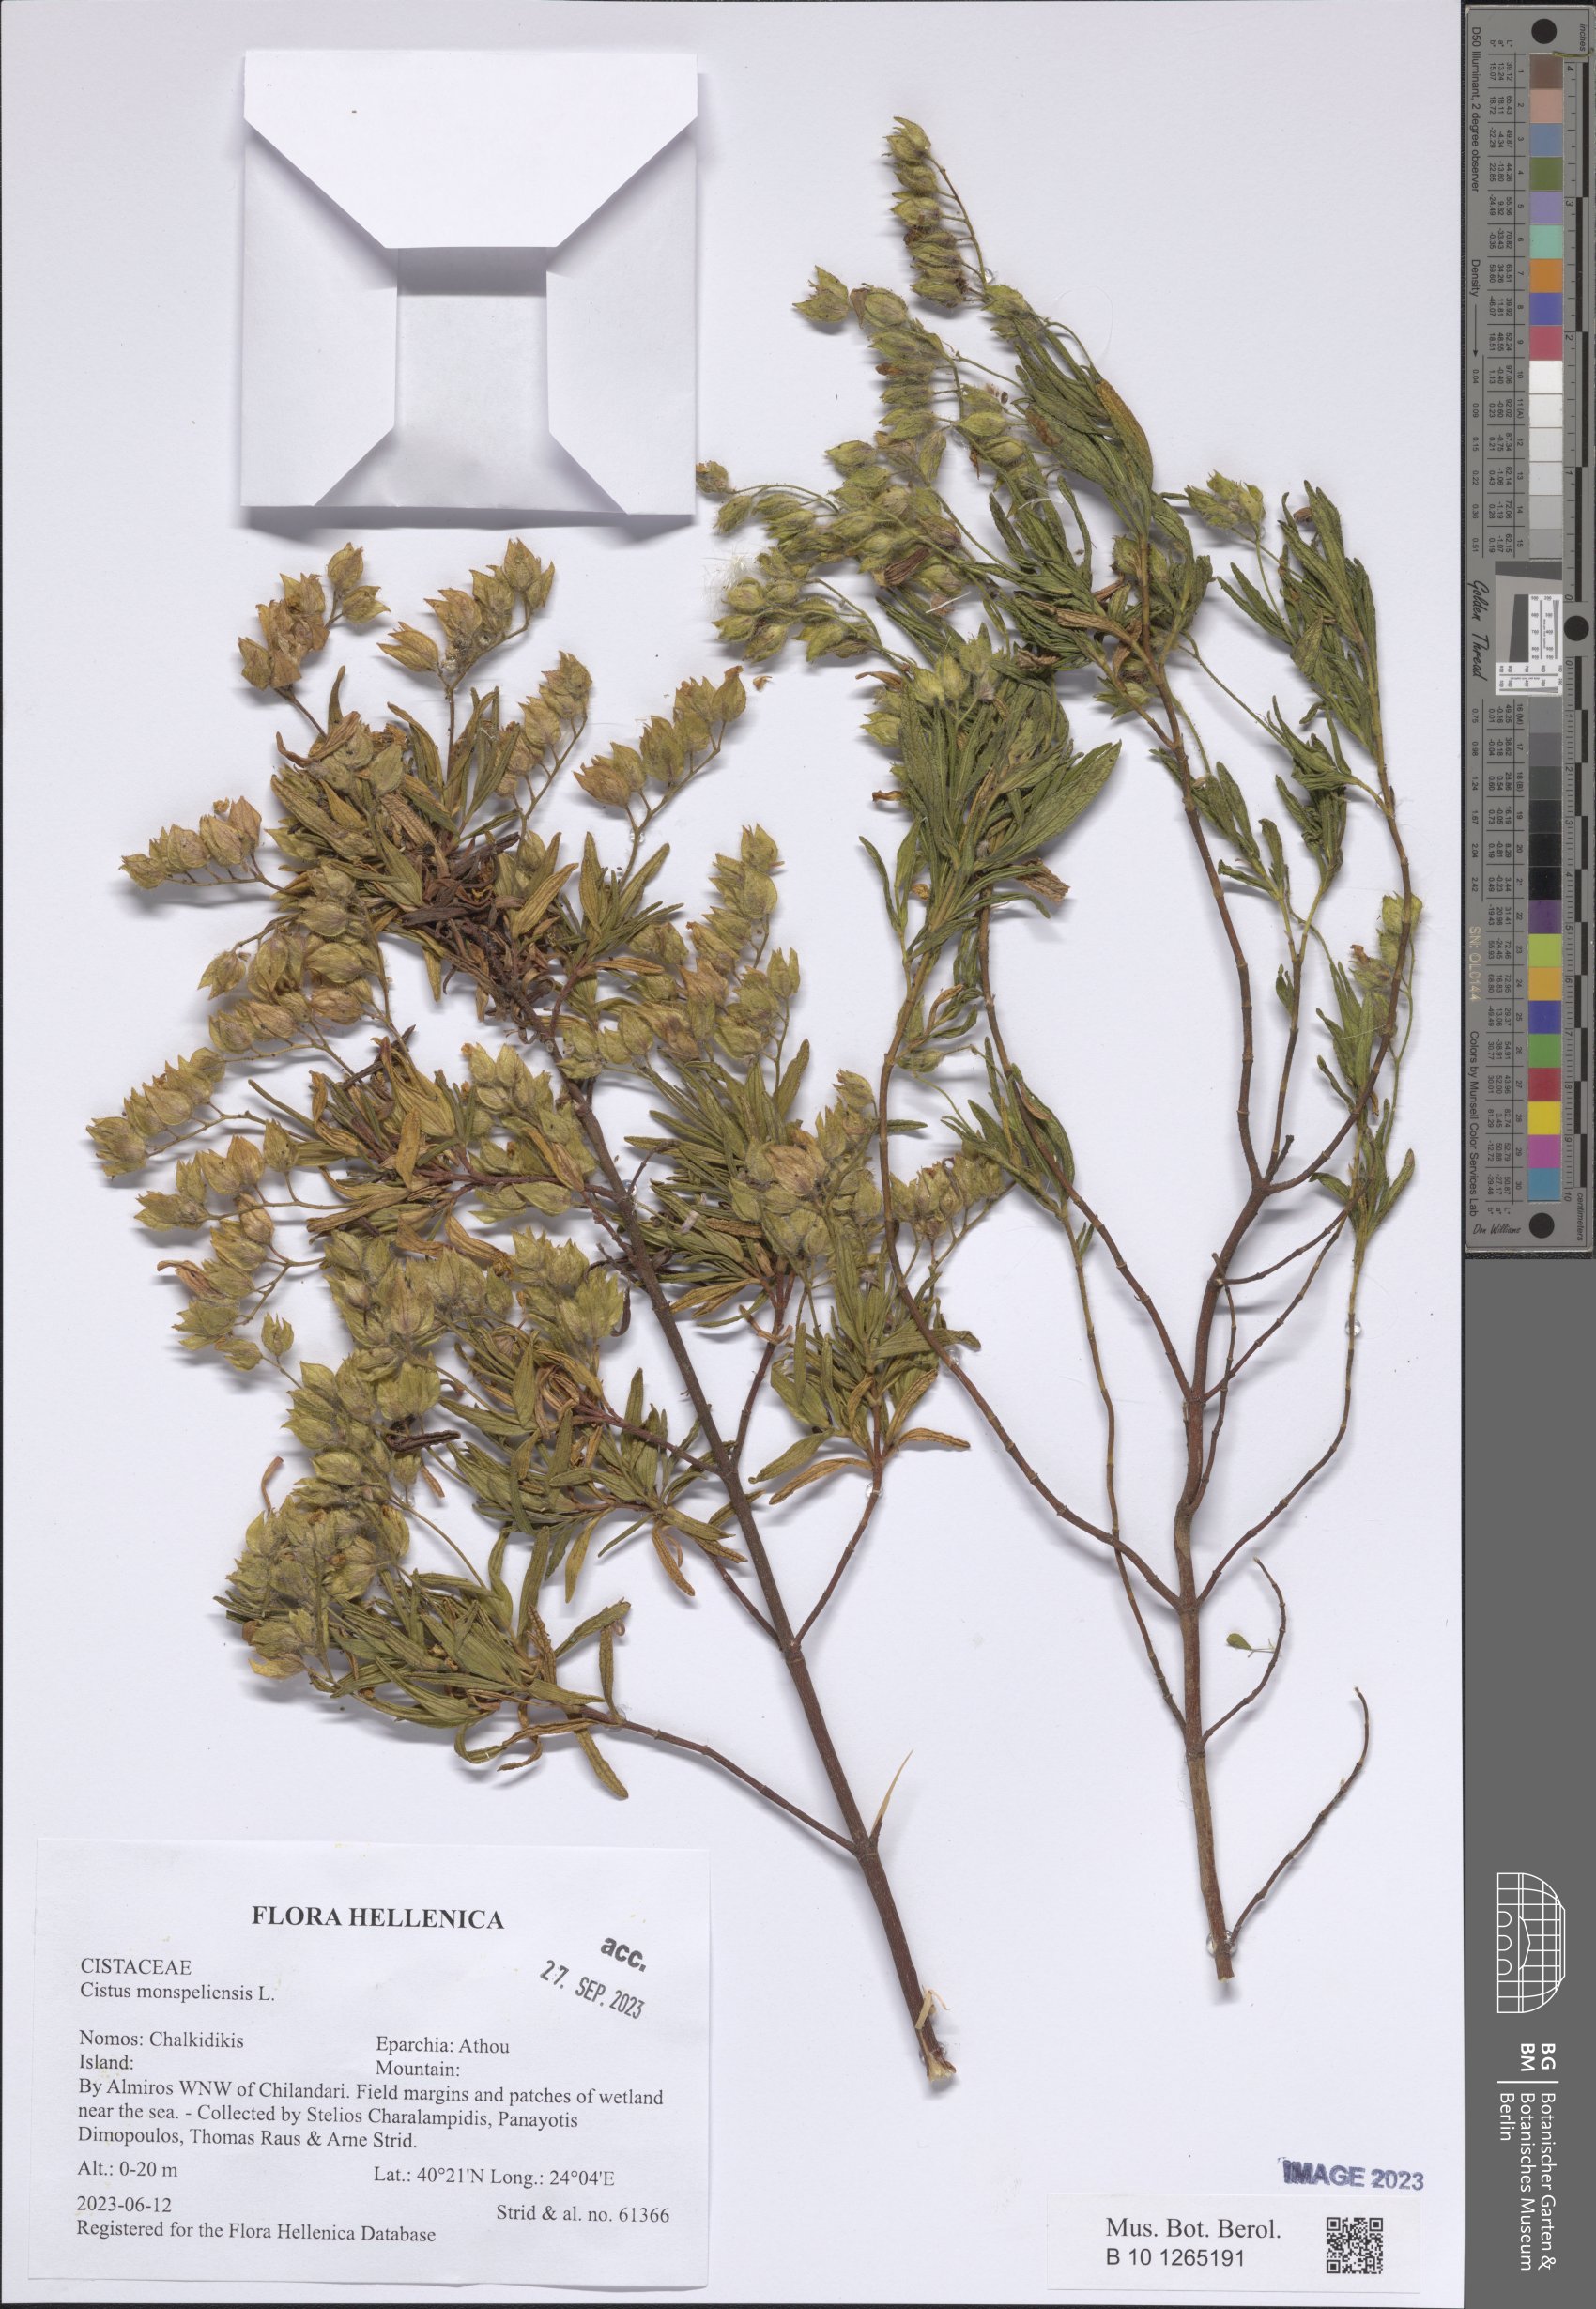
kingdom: Plantae
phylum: Tracheophyta
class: Magnoliopsida
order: Malvales
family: Cistaceae
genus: Cistus
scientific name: Cistus monspeliensis
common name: Montpelier cistus
